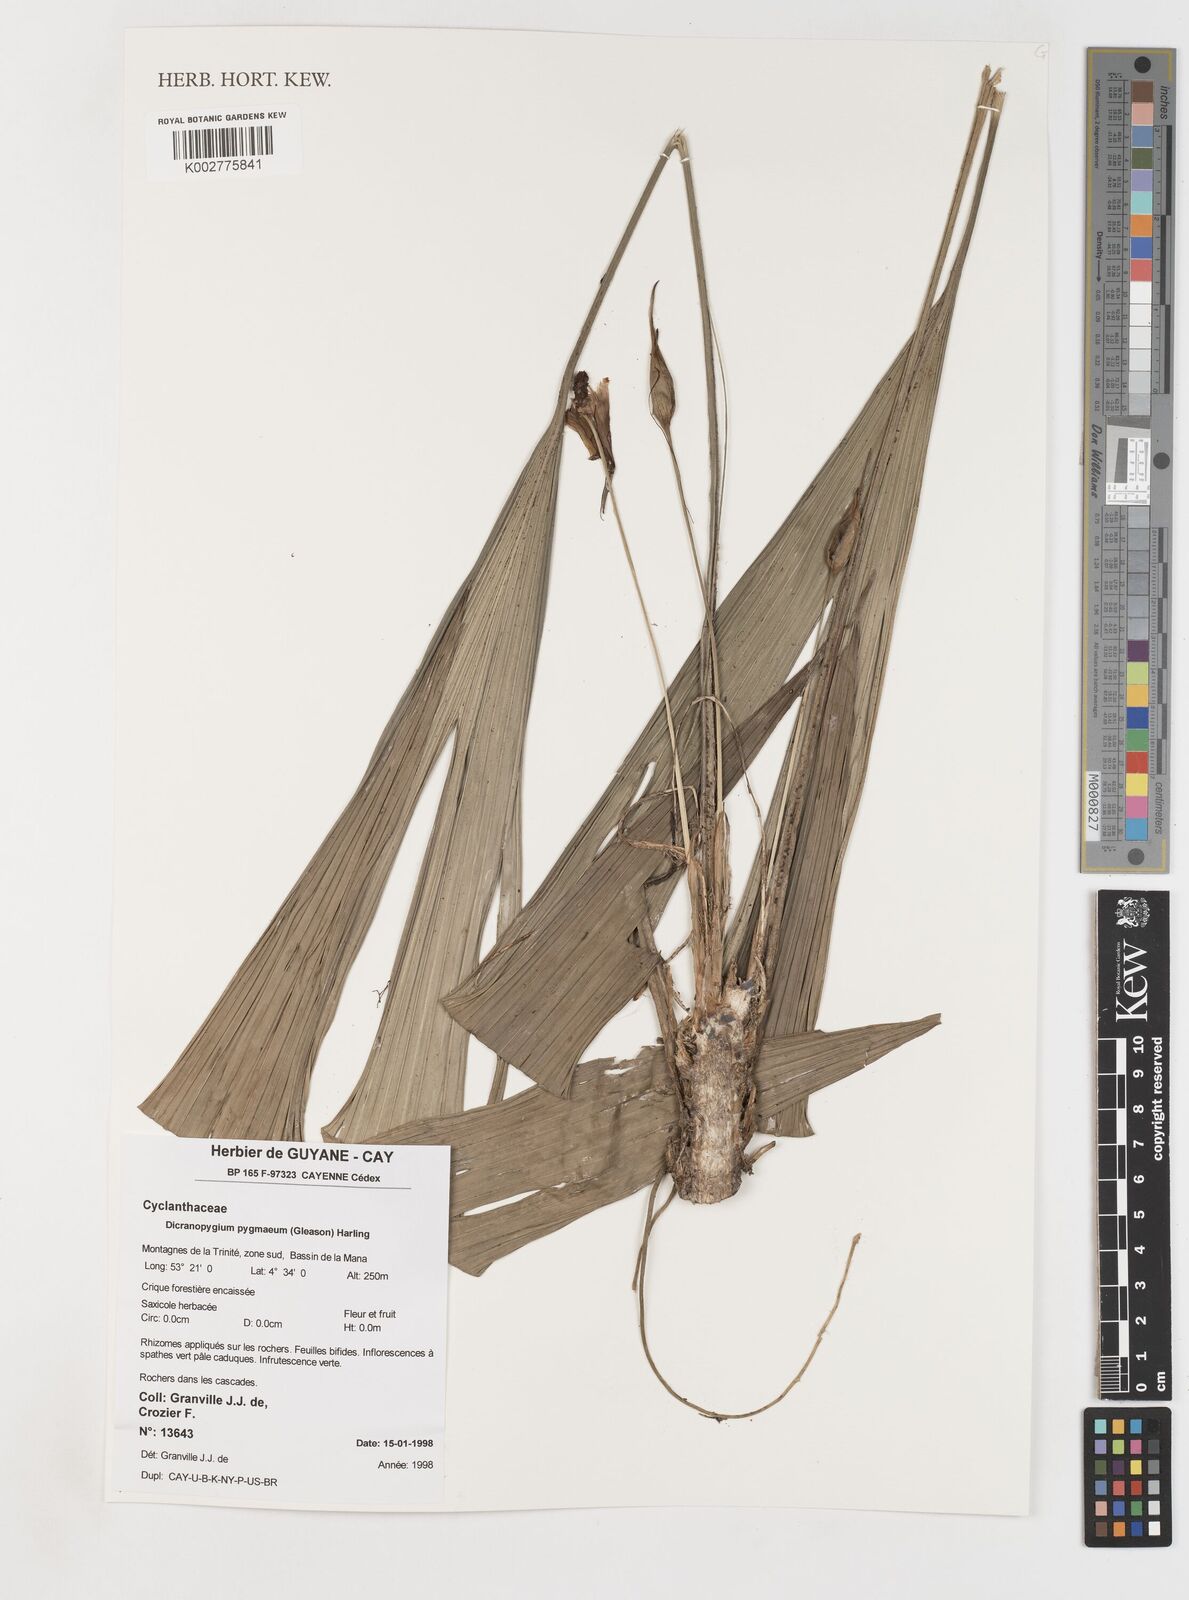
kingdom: Plantae
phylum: Tracheophyta
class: Liliopsida
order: Pandanales
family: Cyclanthaceae
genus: Dicranopygium
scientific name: Dicranopygium pygmaeum
